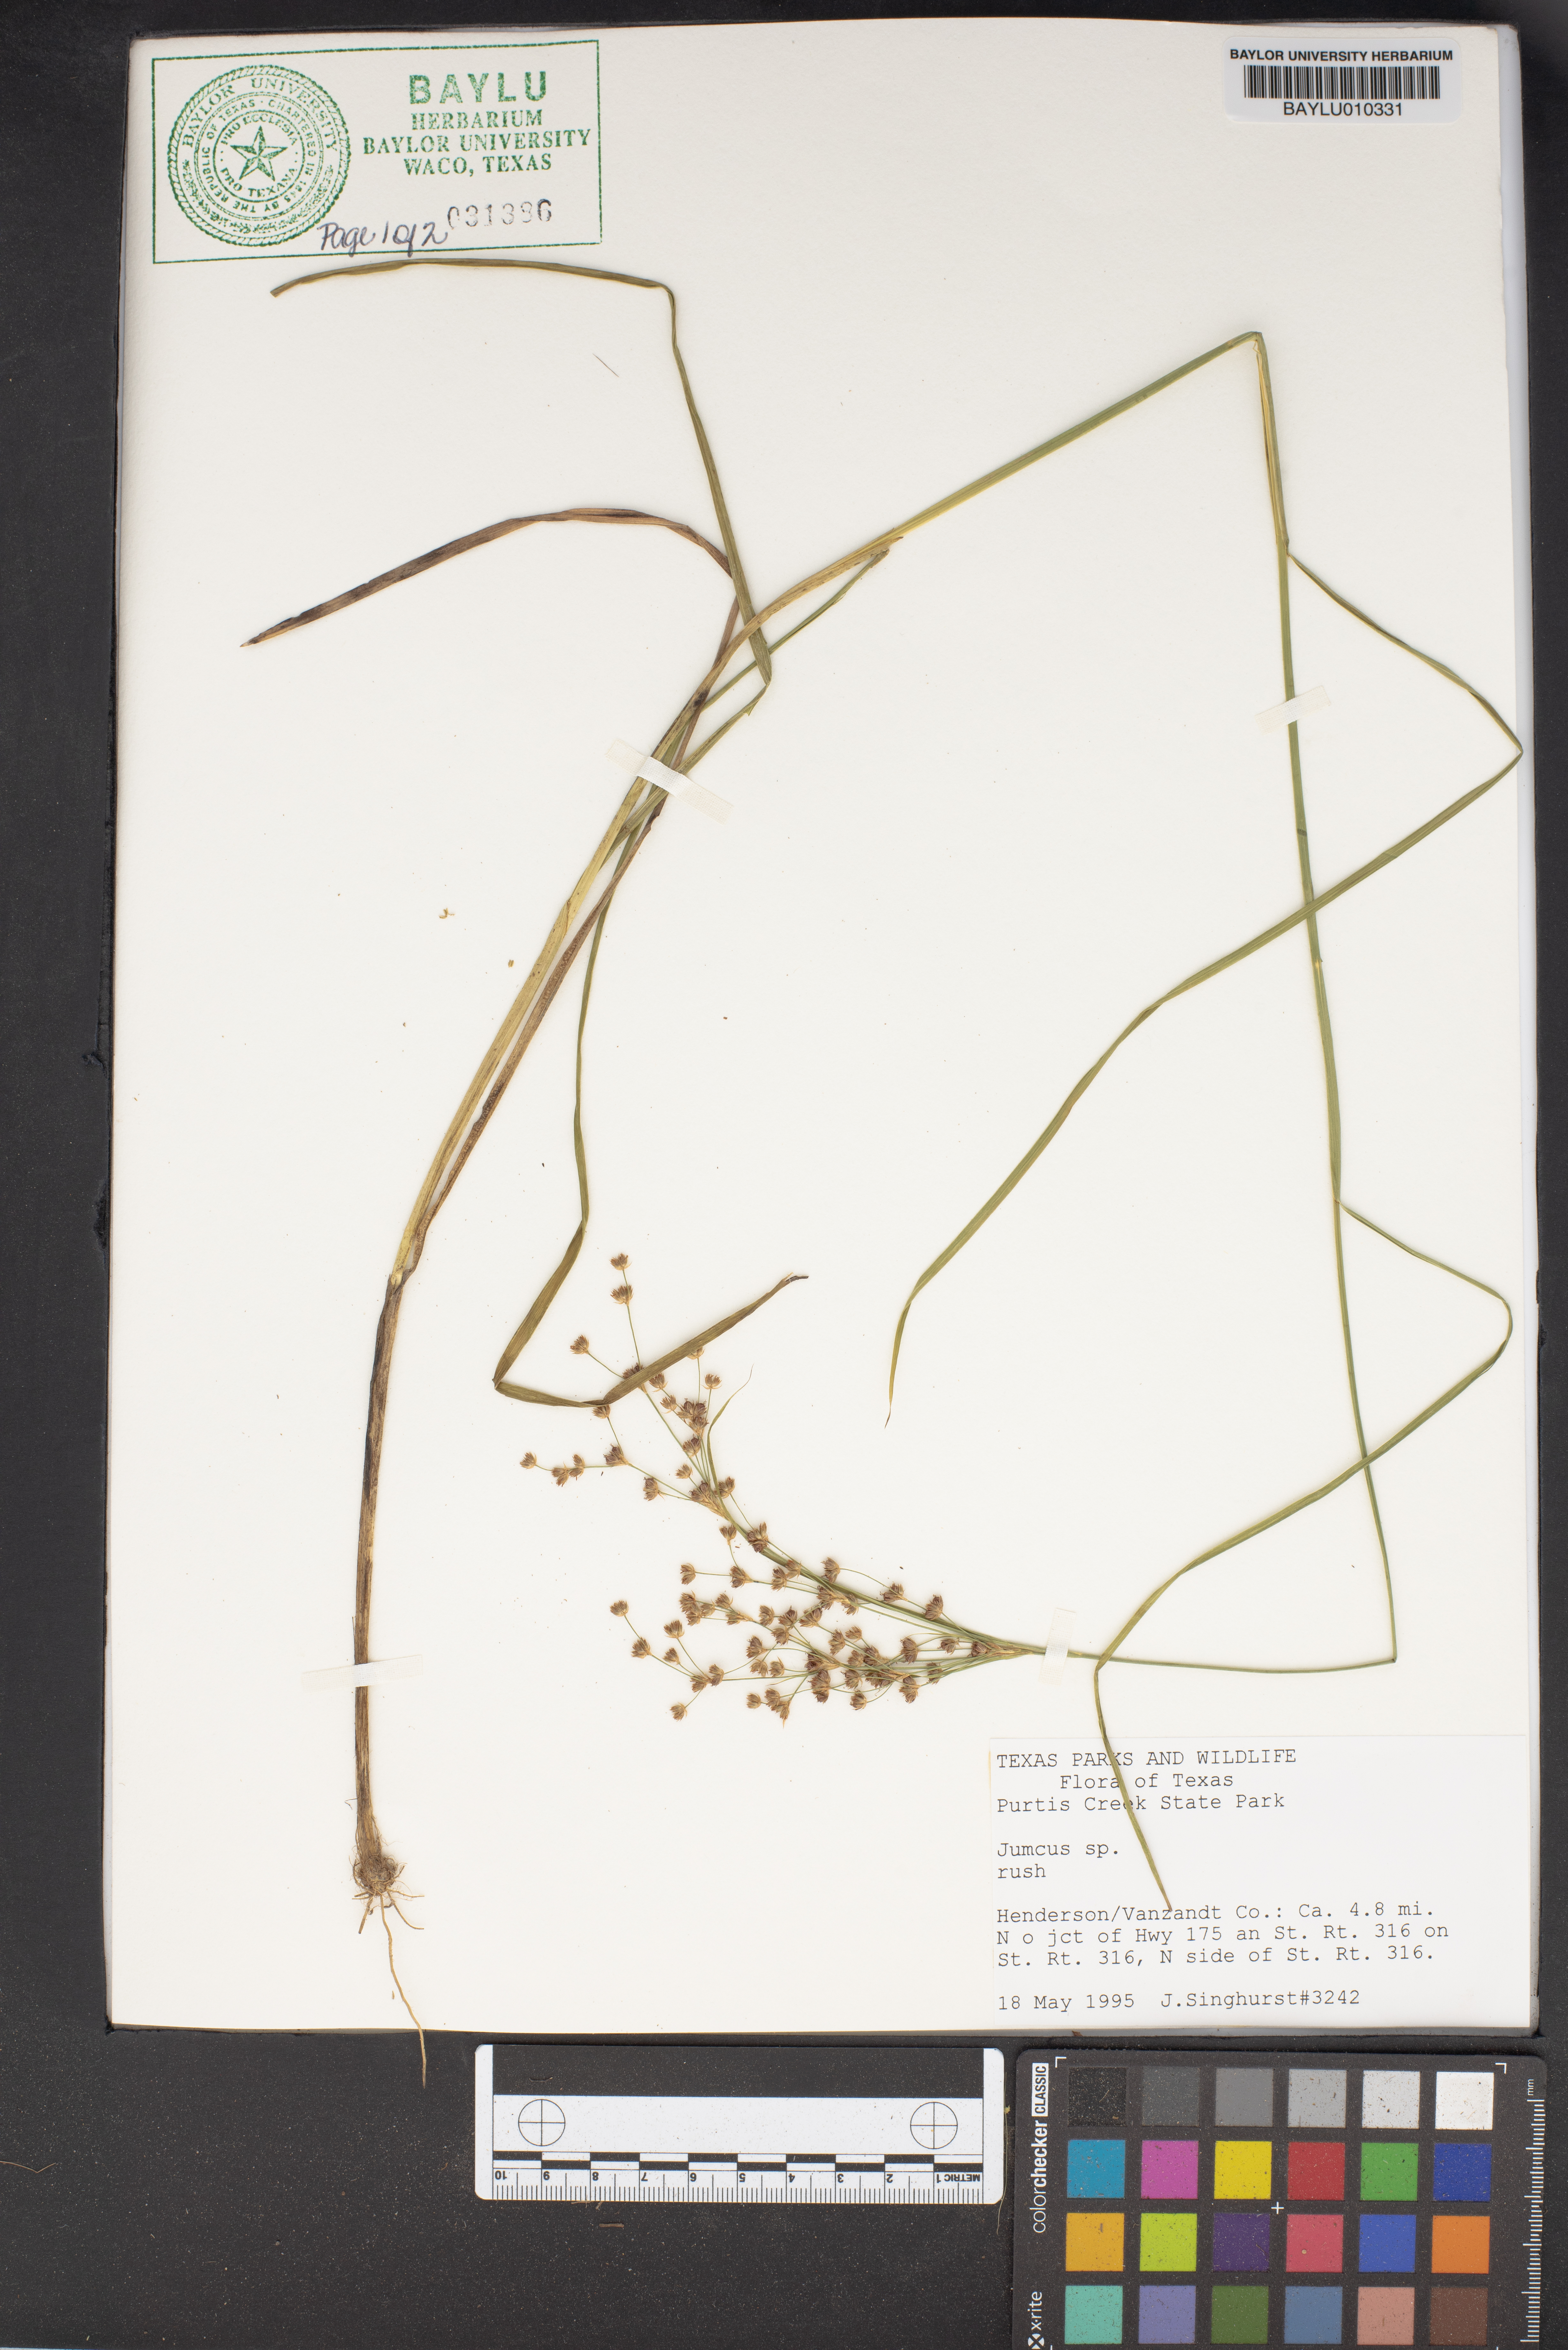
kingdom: Plantae
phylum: Tracheophyta
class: Liliopsida
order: Poales
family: Juncaceae
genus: Juncus
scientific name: Juncus
